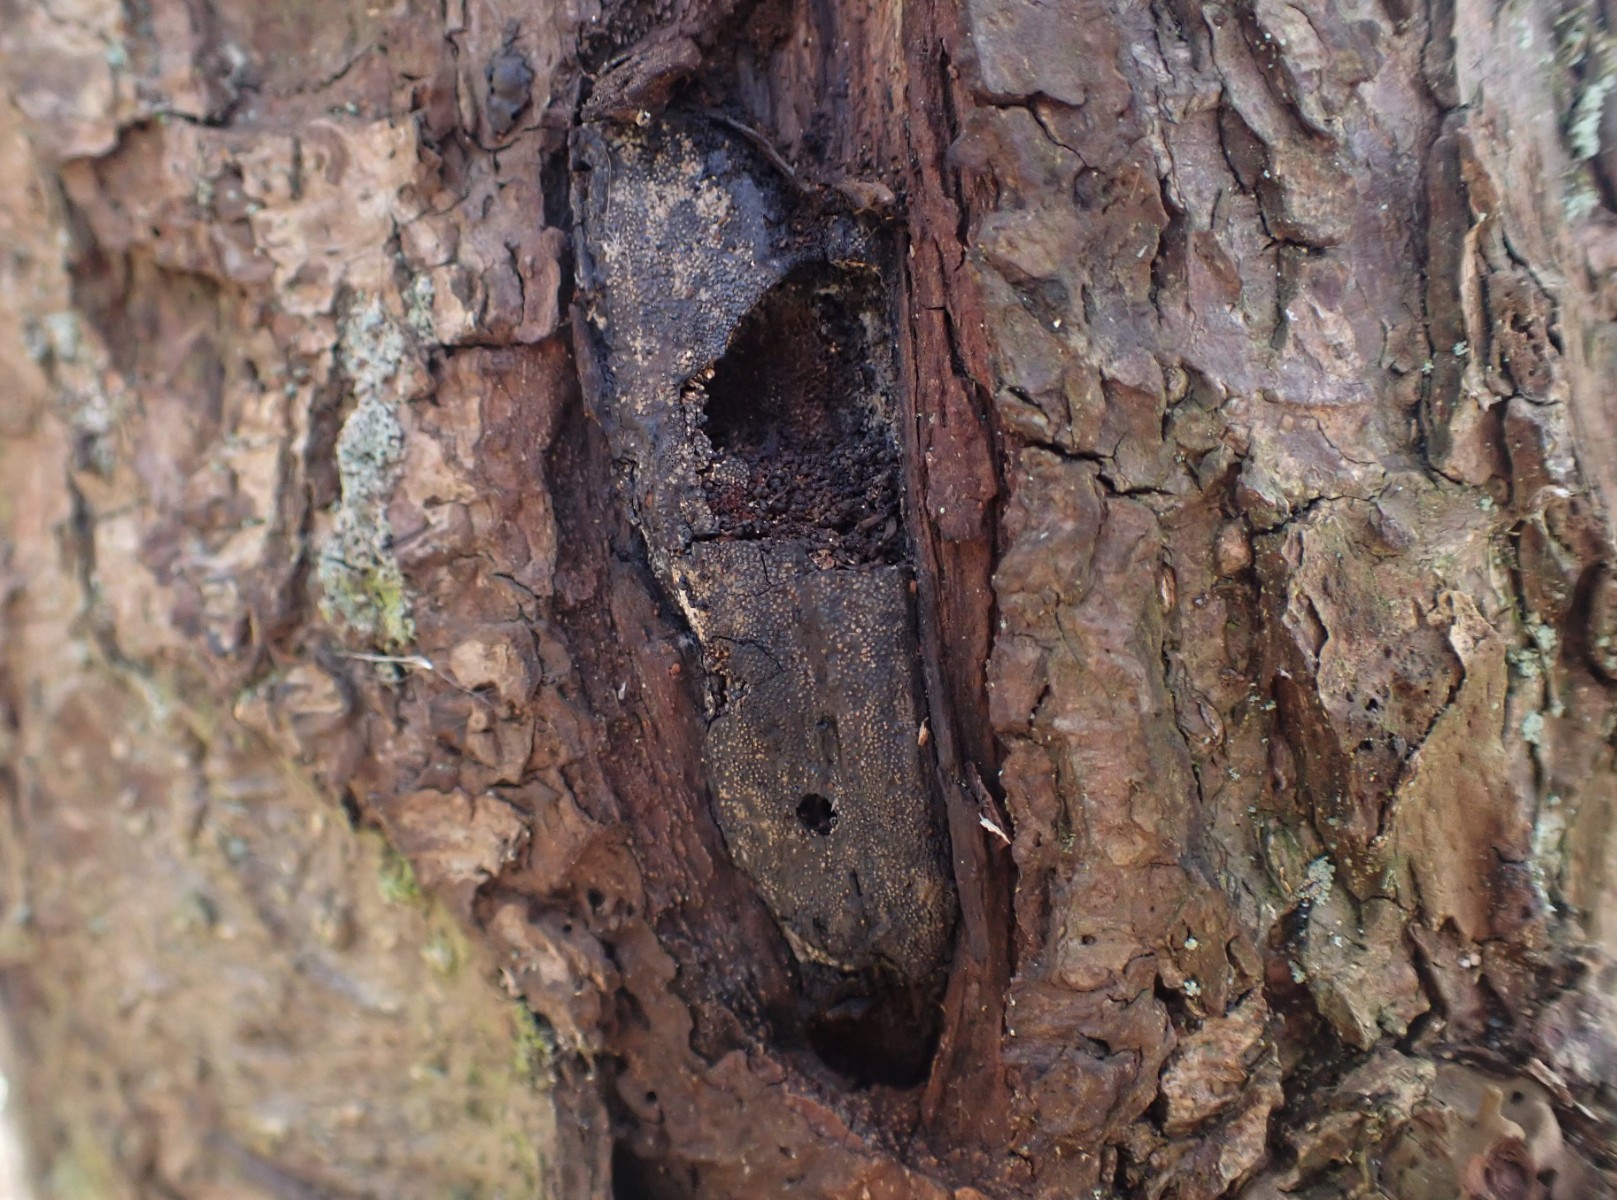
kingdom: Fungi
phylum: Ascomycota
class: Sordariomycetes
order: Boliniales
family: Boliniaceae
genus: Camarops
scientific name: Camarops polysperma
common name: elle-kulsnegl
